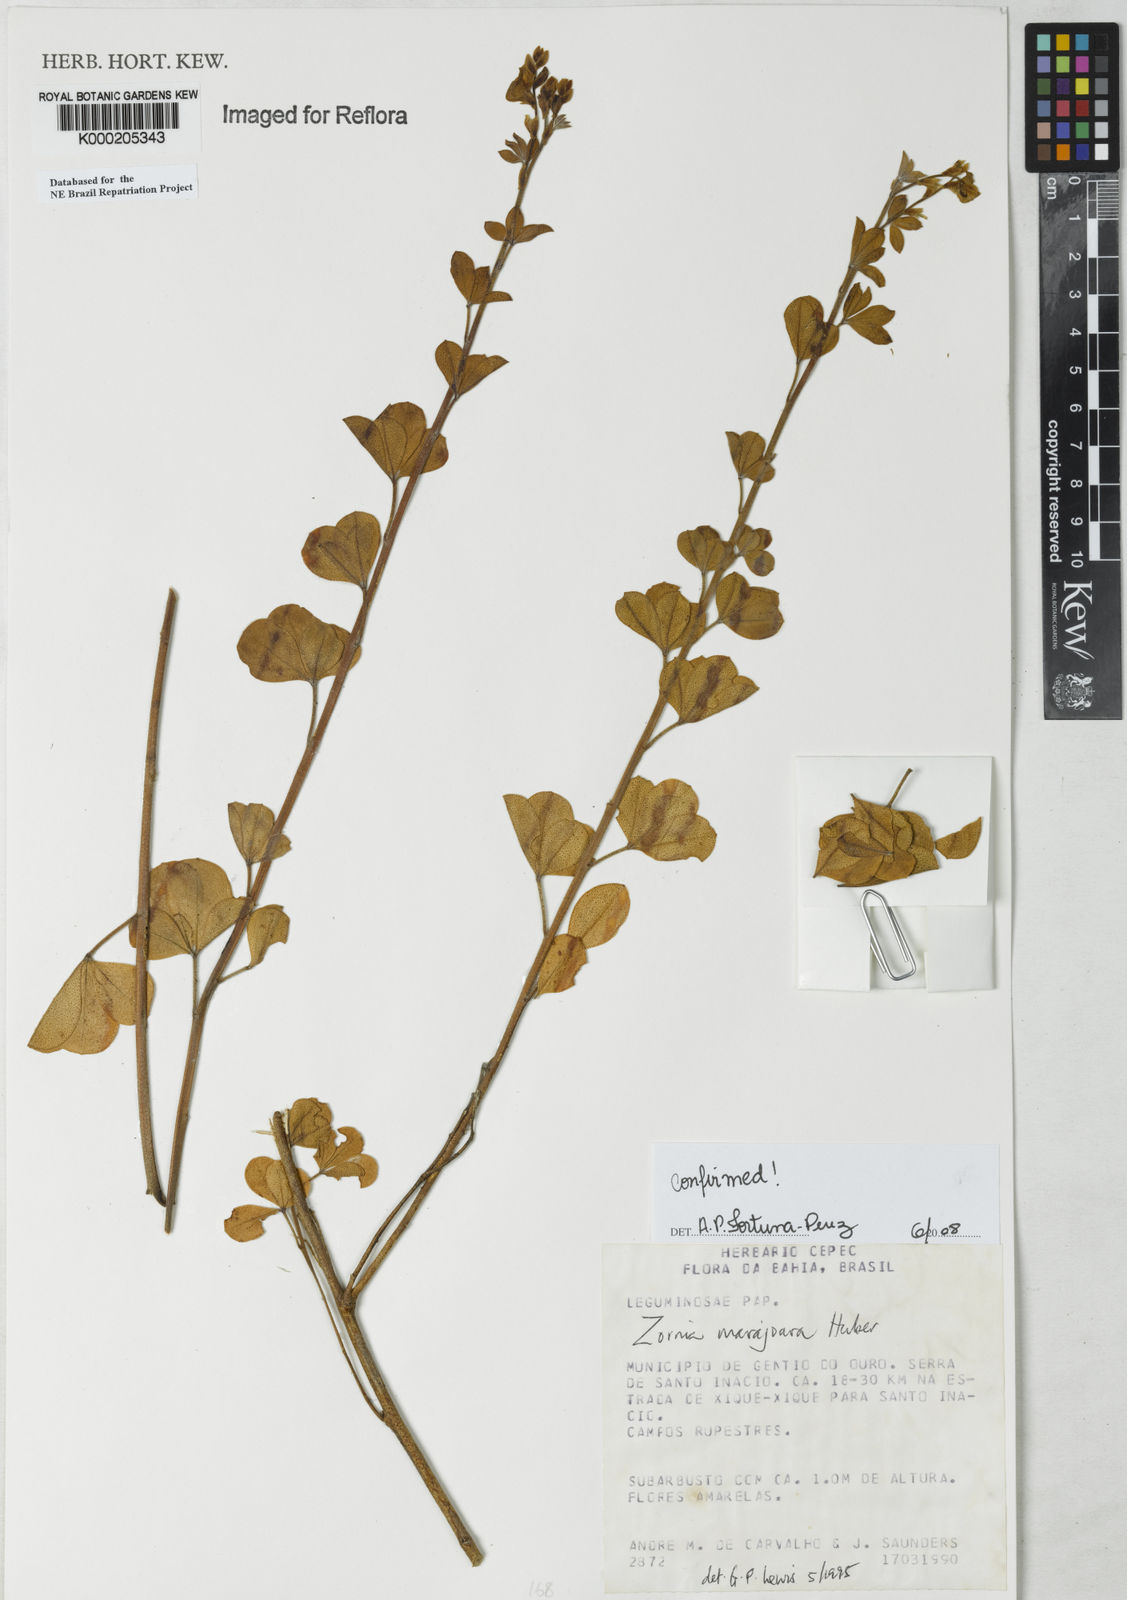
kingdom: Plantae
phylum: Tracheophyta
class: Magnoliopsida
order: Fabales
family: Fabaceae
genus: Zornia
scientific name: Zornia guanipensis
